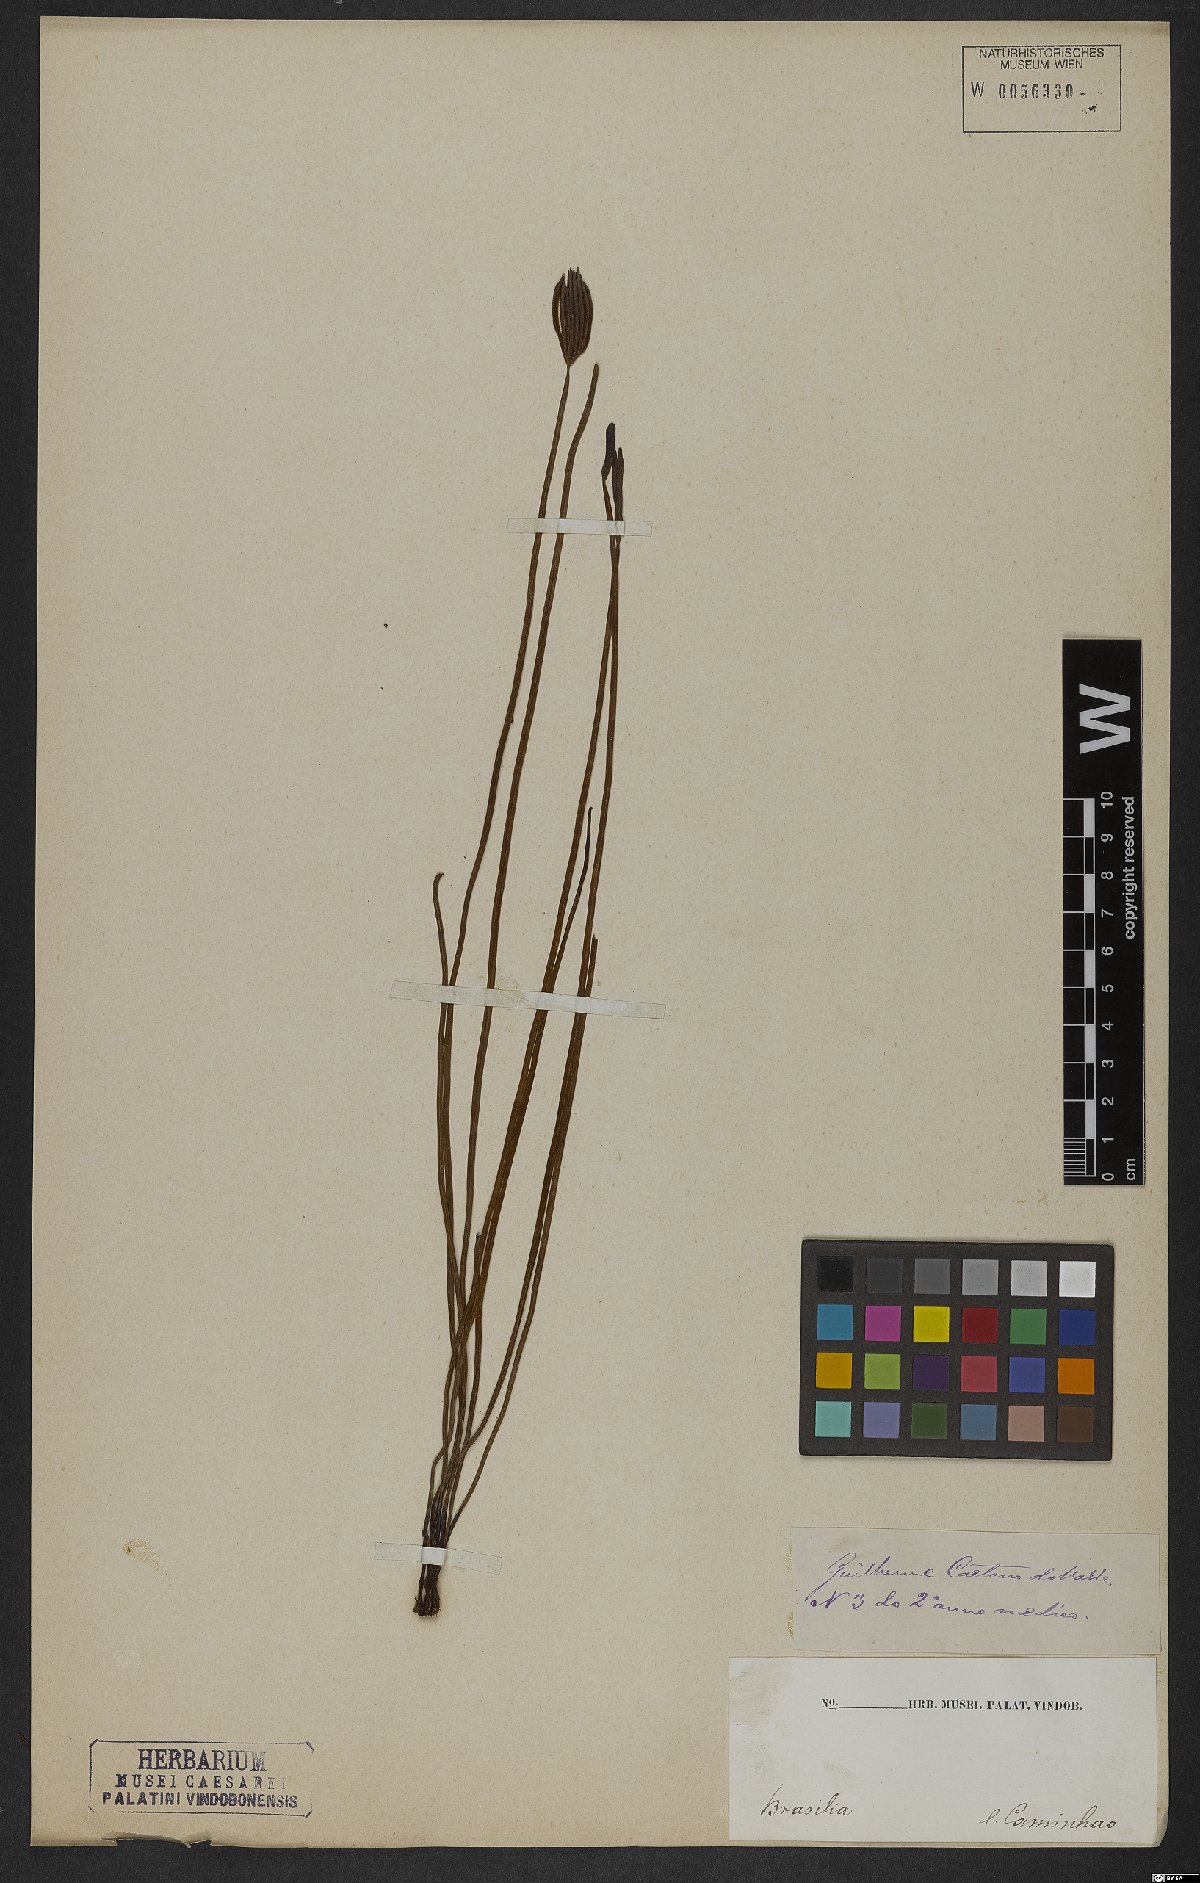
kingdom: Plantae
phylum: Tracheophyta
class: Polypodiopsida
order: Schizaeales
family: Schizaeaceae
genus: Actinostachys
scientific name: Actinostachys pennula
